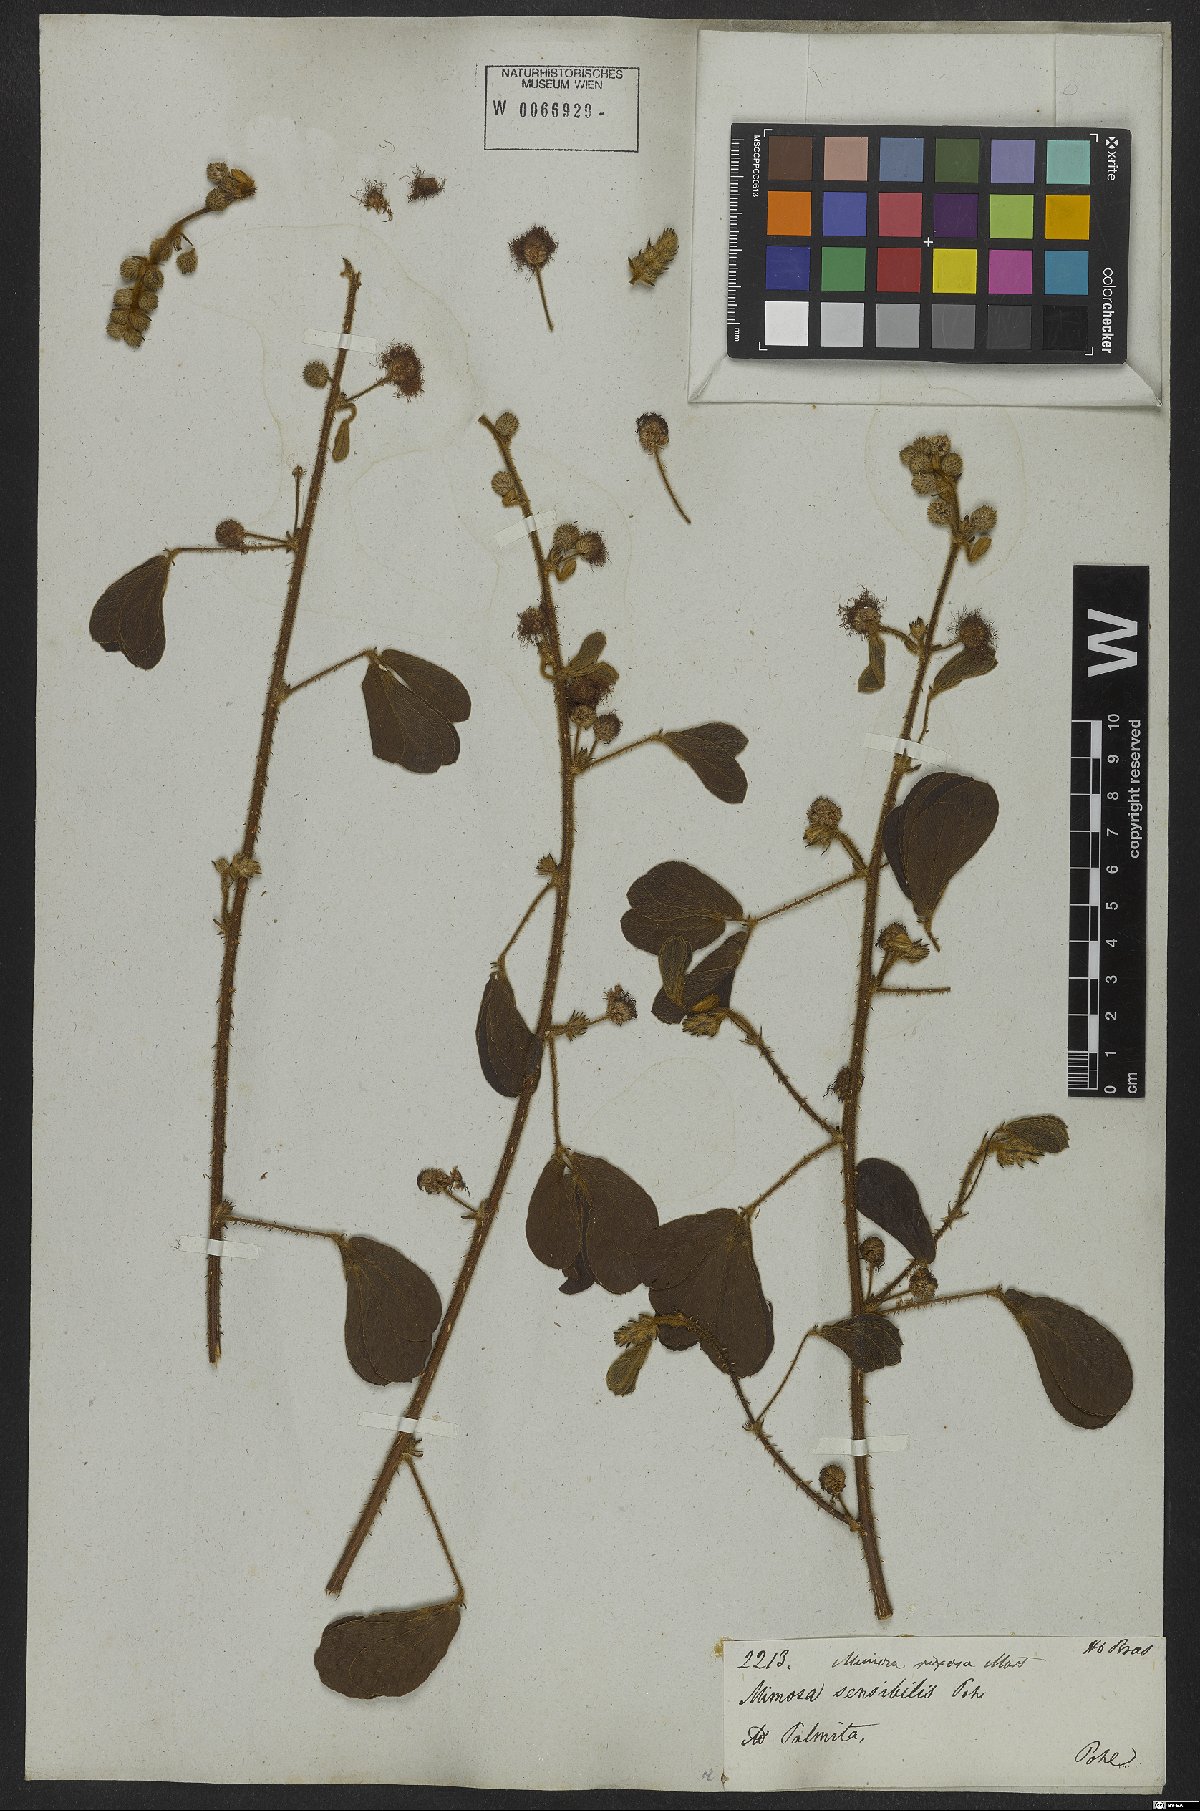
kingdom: Plantae
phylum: Tracheophyta
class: Magnoliopsida
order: Fabales
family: Fabaceae
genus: Mimosa
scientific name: Mimosa debilis
